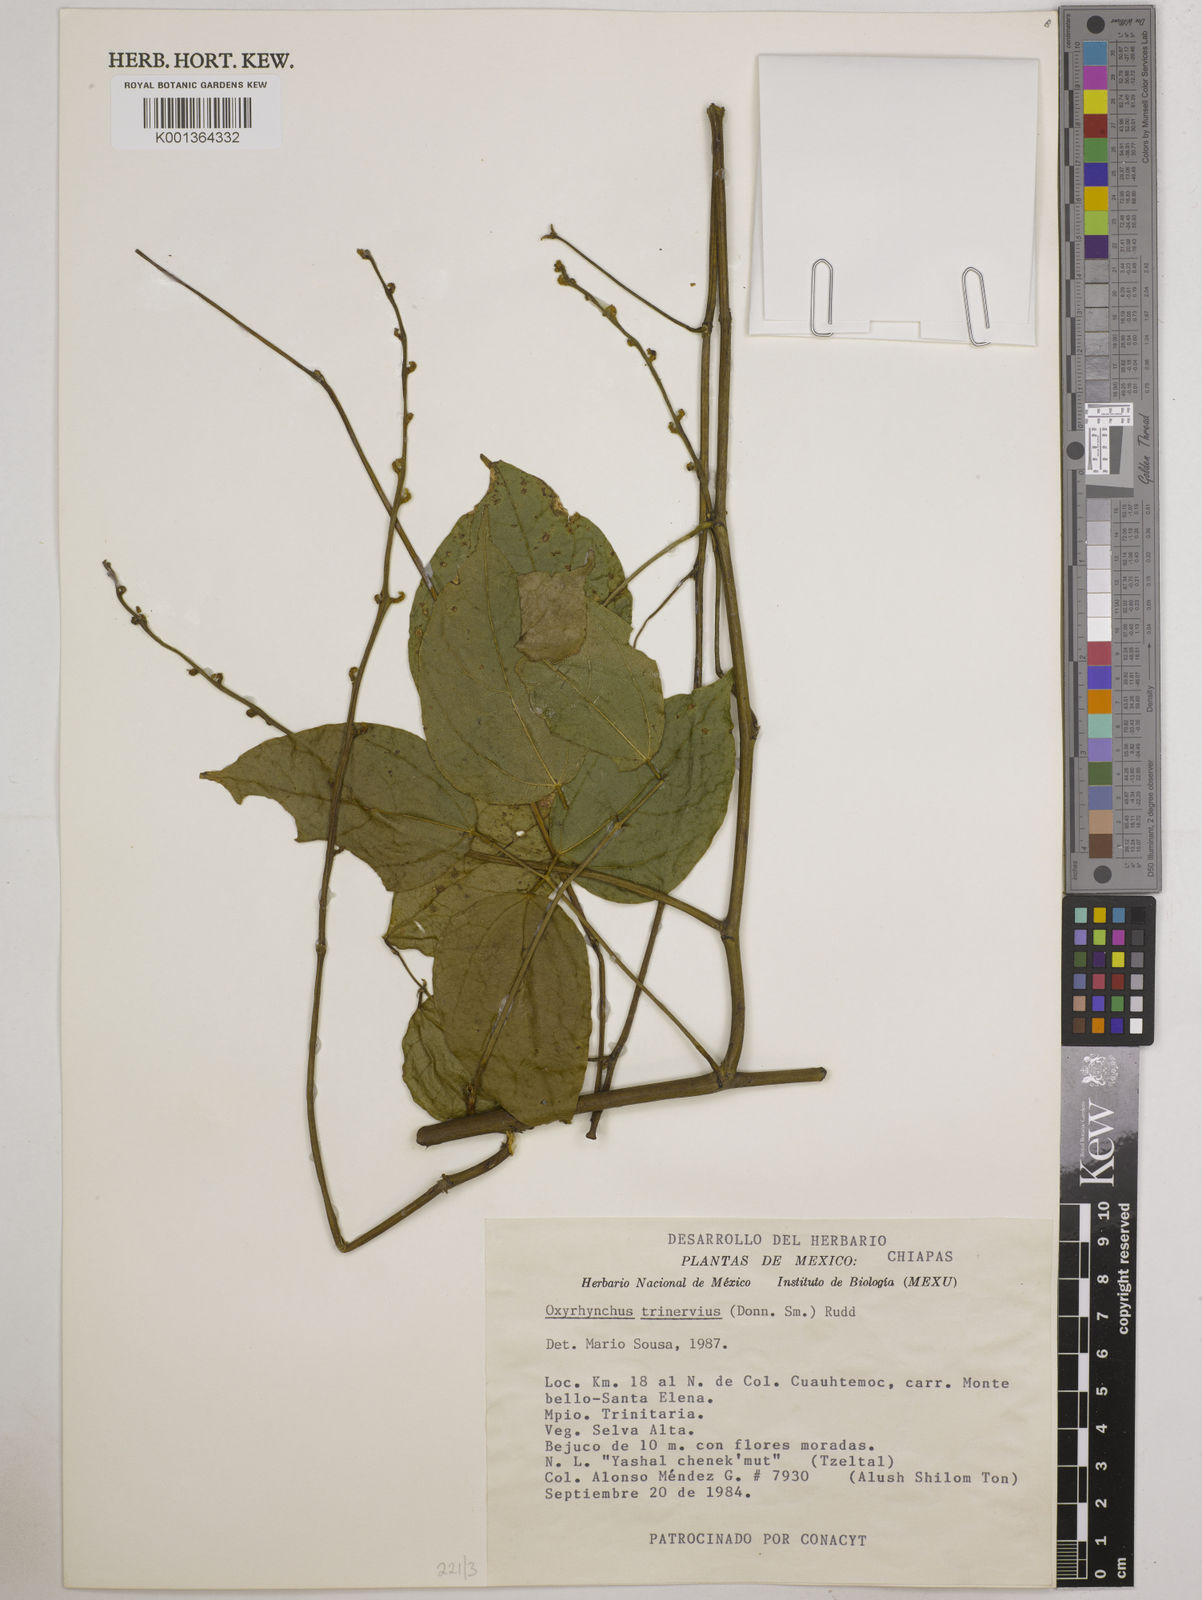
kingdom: Plantae
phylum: Tracheophyta
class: Magnoliopsida
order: Fabales
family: Fabaceae
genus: Oxyrhynchus
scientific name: Oxyrhynchus trinervius
